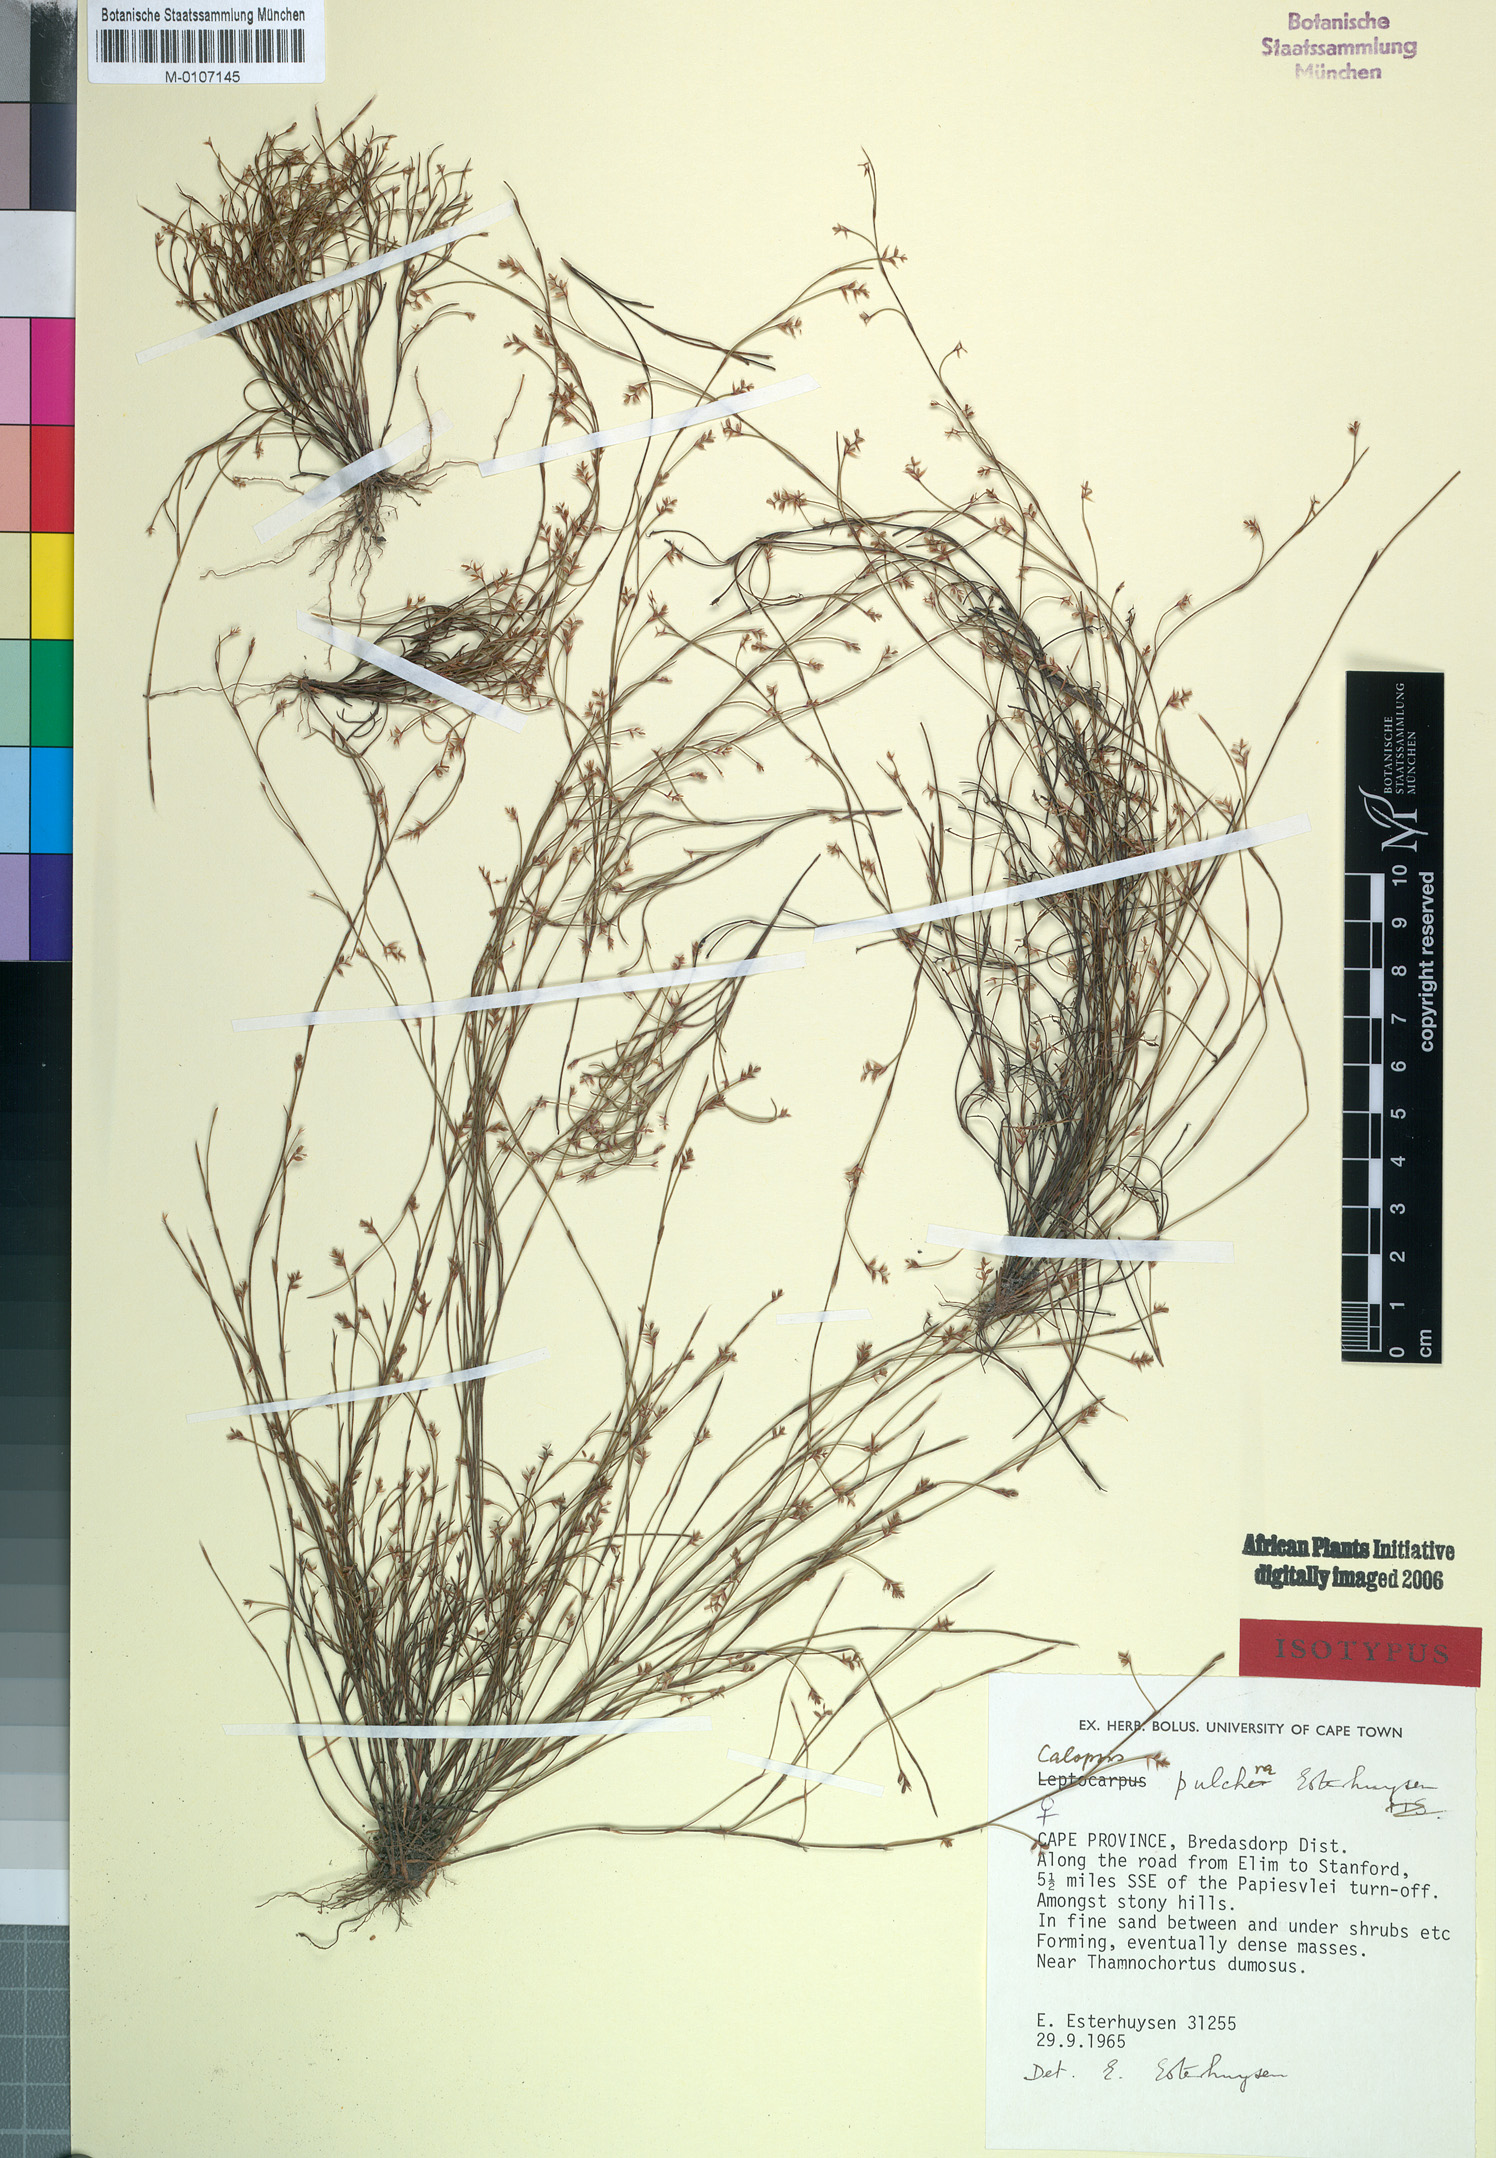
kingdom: Plantae
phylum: Tracheophyta
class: Liliopsida
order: Poales
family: Restionaceae
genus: Restio
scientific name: Restio pulcher
